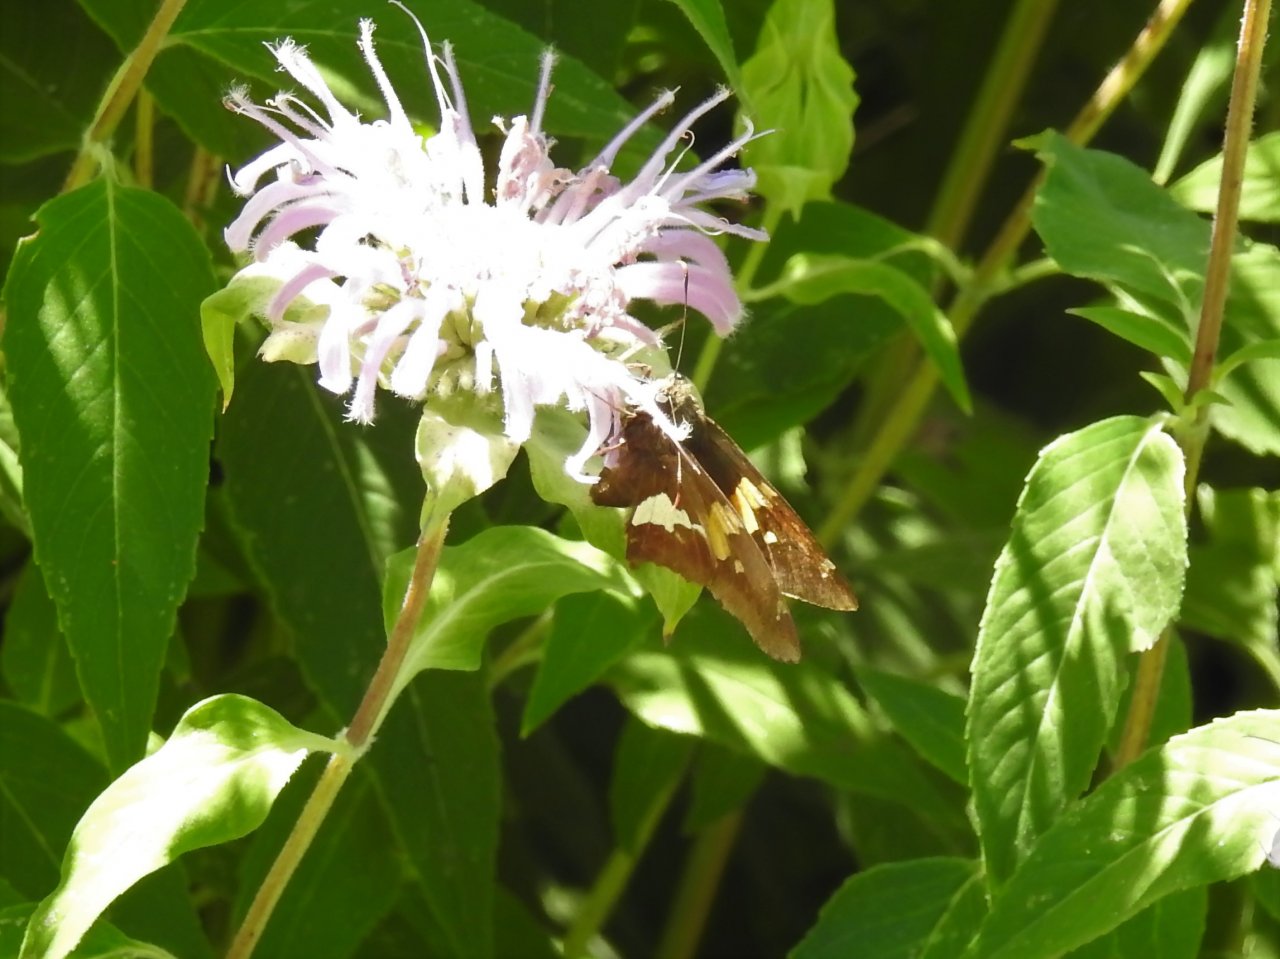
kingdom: Animalia
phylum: Arthropoda
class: Insecta
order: Lepidoptera
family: Hesperiidae
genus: Epargyreus
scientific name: Epargyreus clarus
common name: Silver-spotted Skipper
